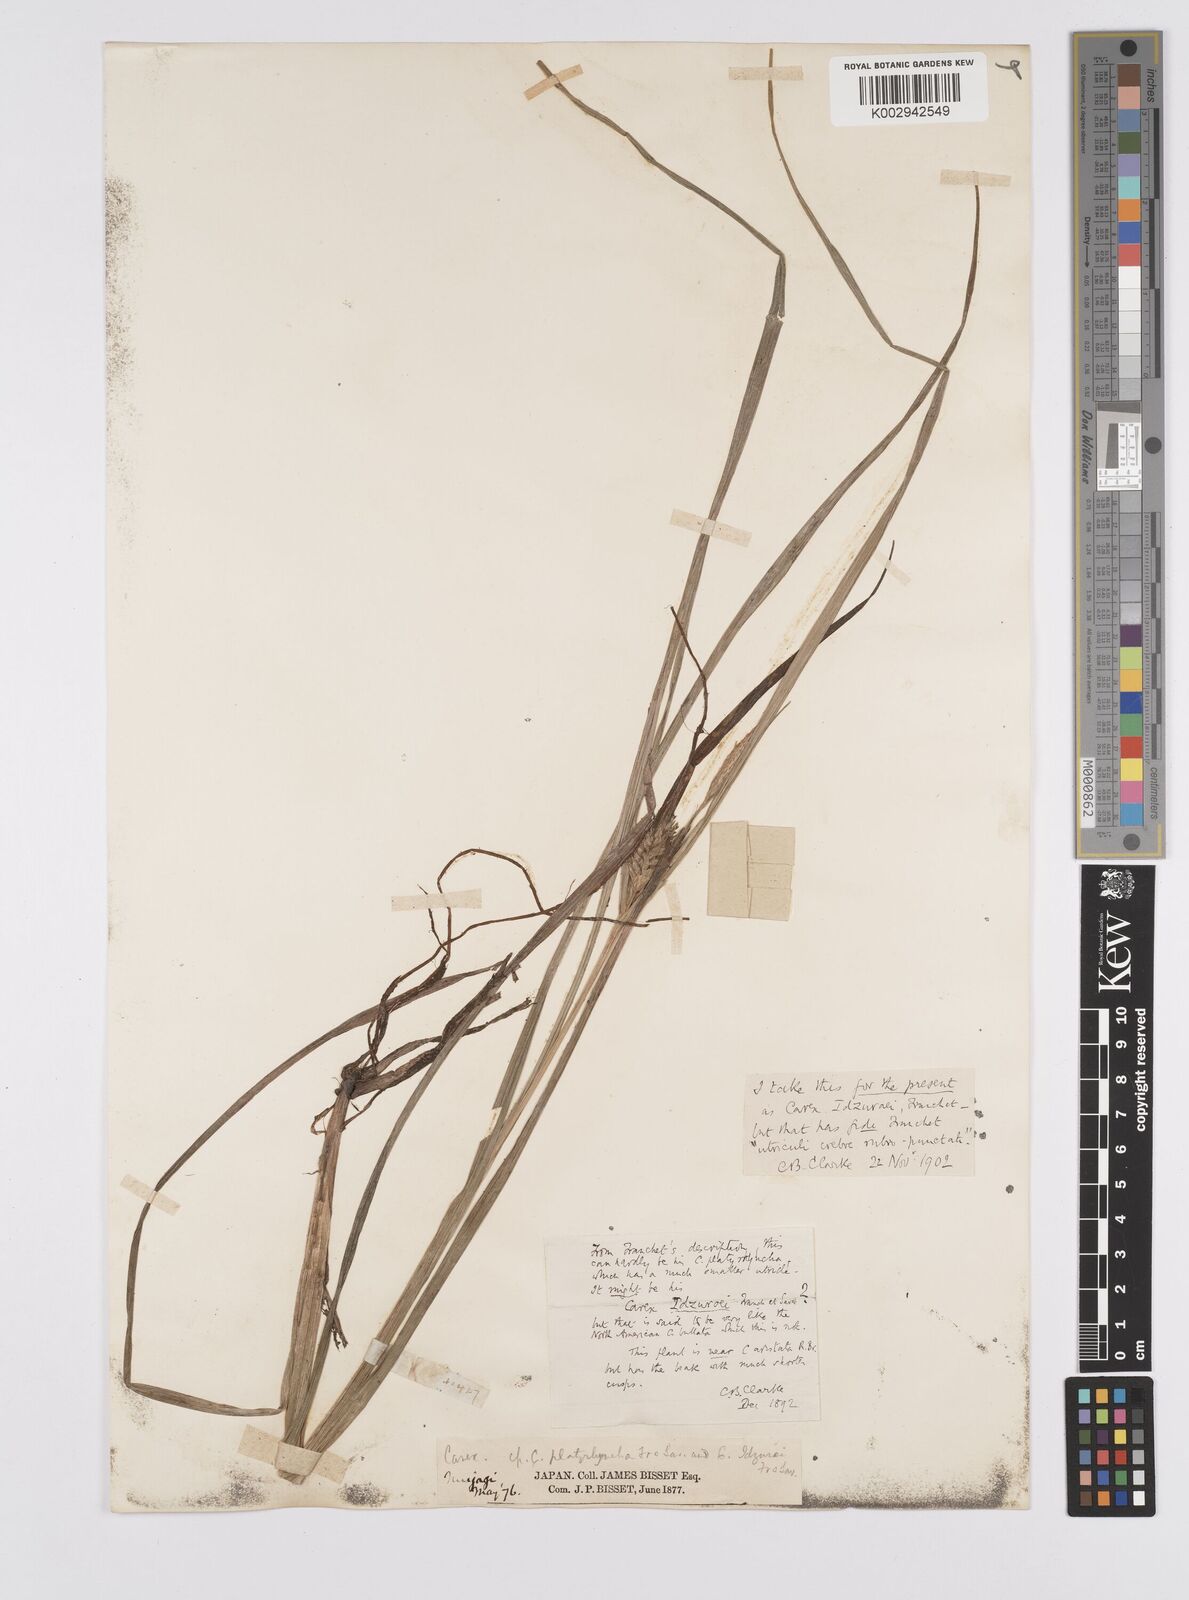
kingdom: Plantae
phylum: Tracheophyta
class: Liliopsida
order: Poales
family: Cyperaceae
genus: Carex
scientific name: Carex idzuroei
